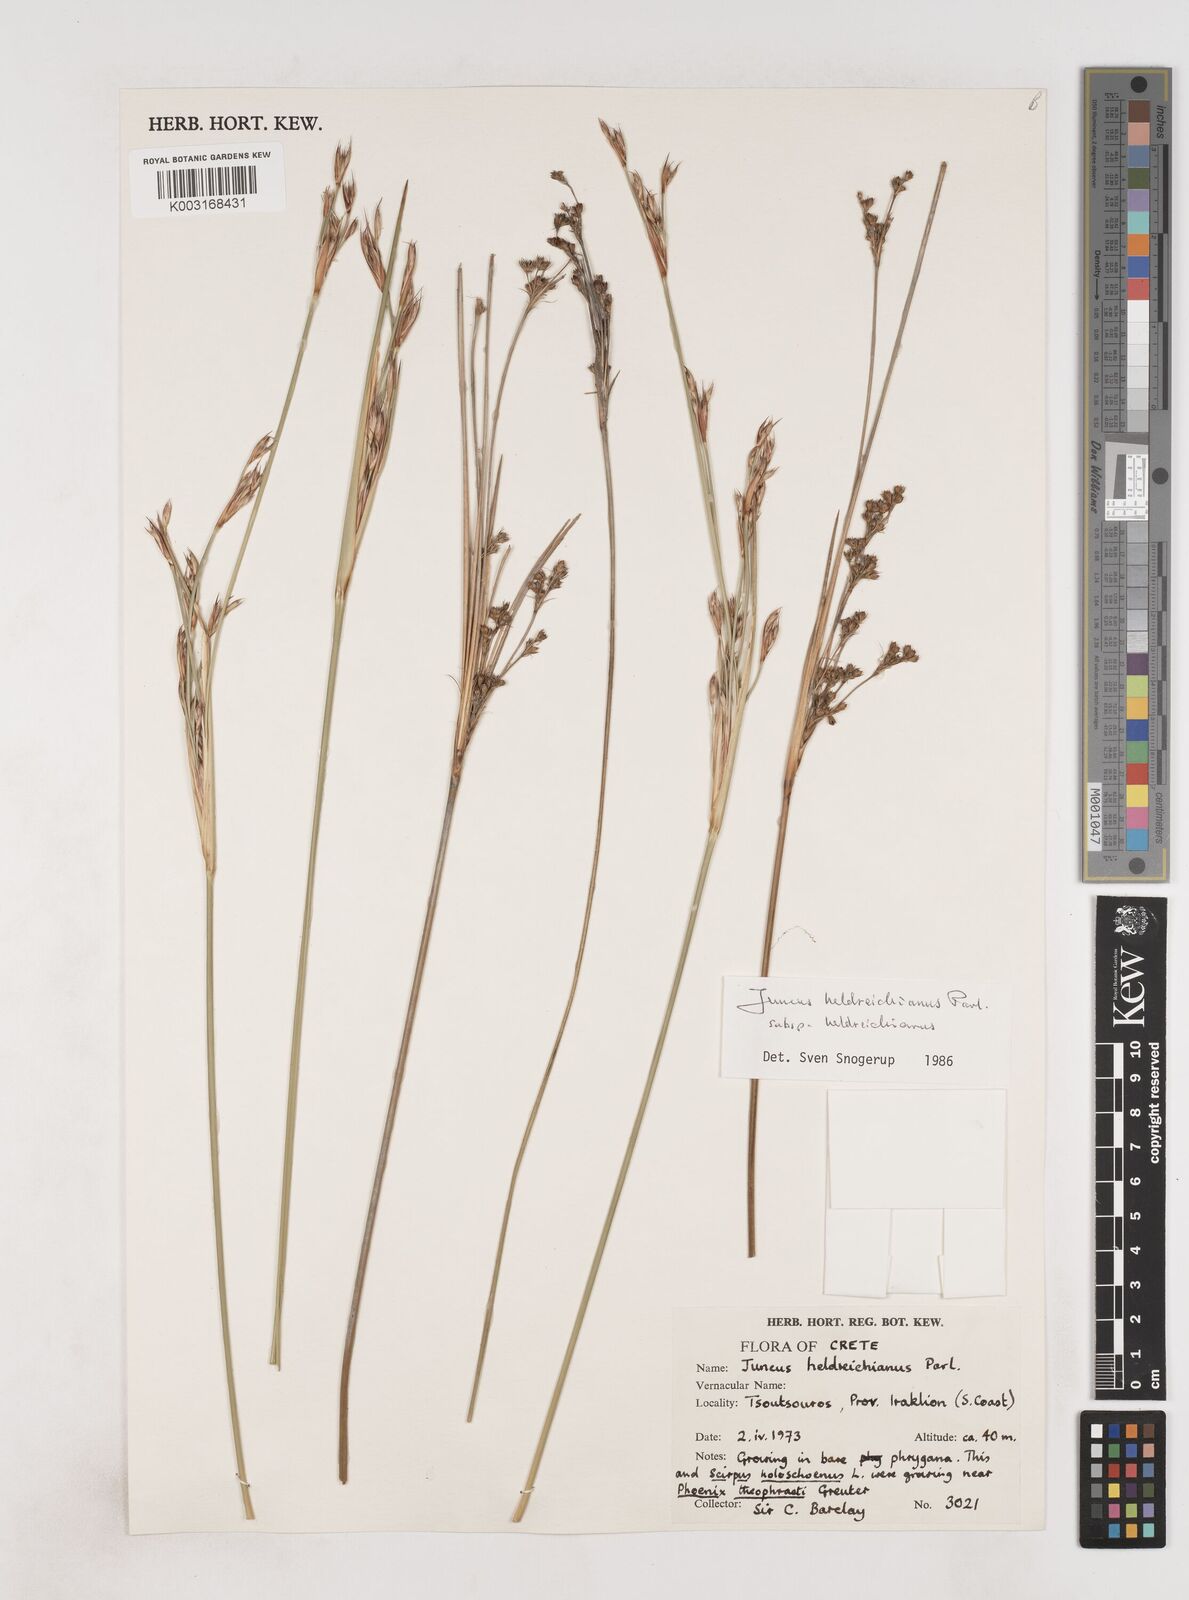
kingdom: Plantae
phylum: Tracheophyta
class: Liliopsida
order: Poales
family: Juncaceae
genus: Juncus
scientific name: Juncus heldreichianus
